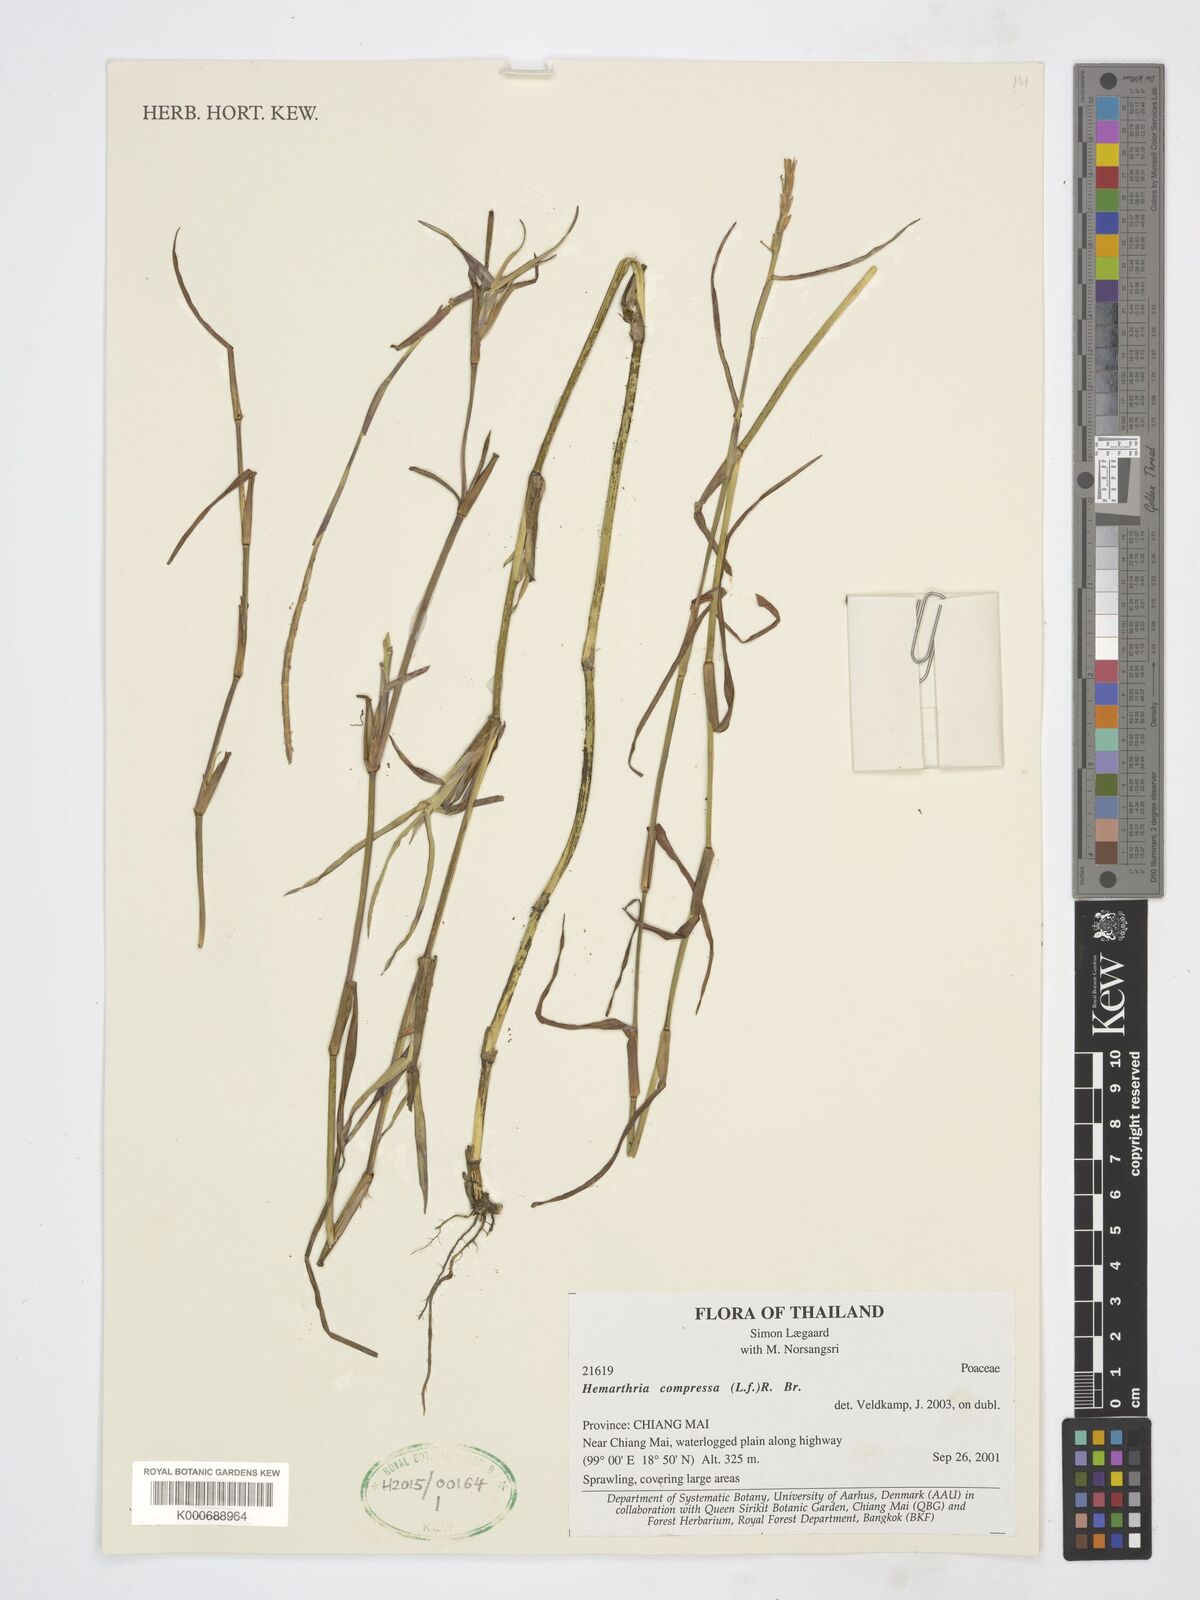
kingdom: Plantae
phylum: Tracheophyta
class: Liliopsida
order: Poales
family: Poaceae
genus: Hemarthria
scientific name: Hemarthria compressa
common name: Whip grass
